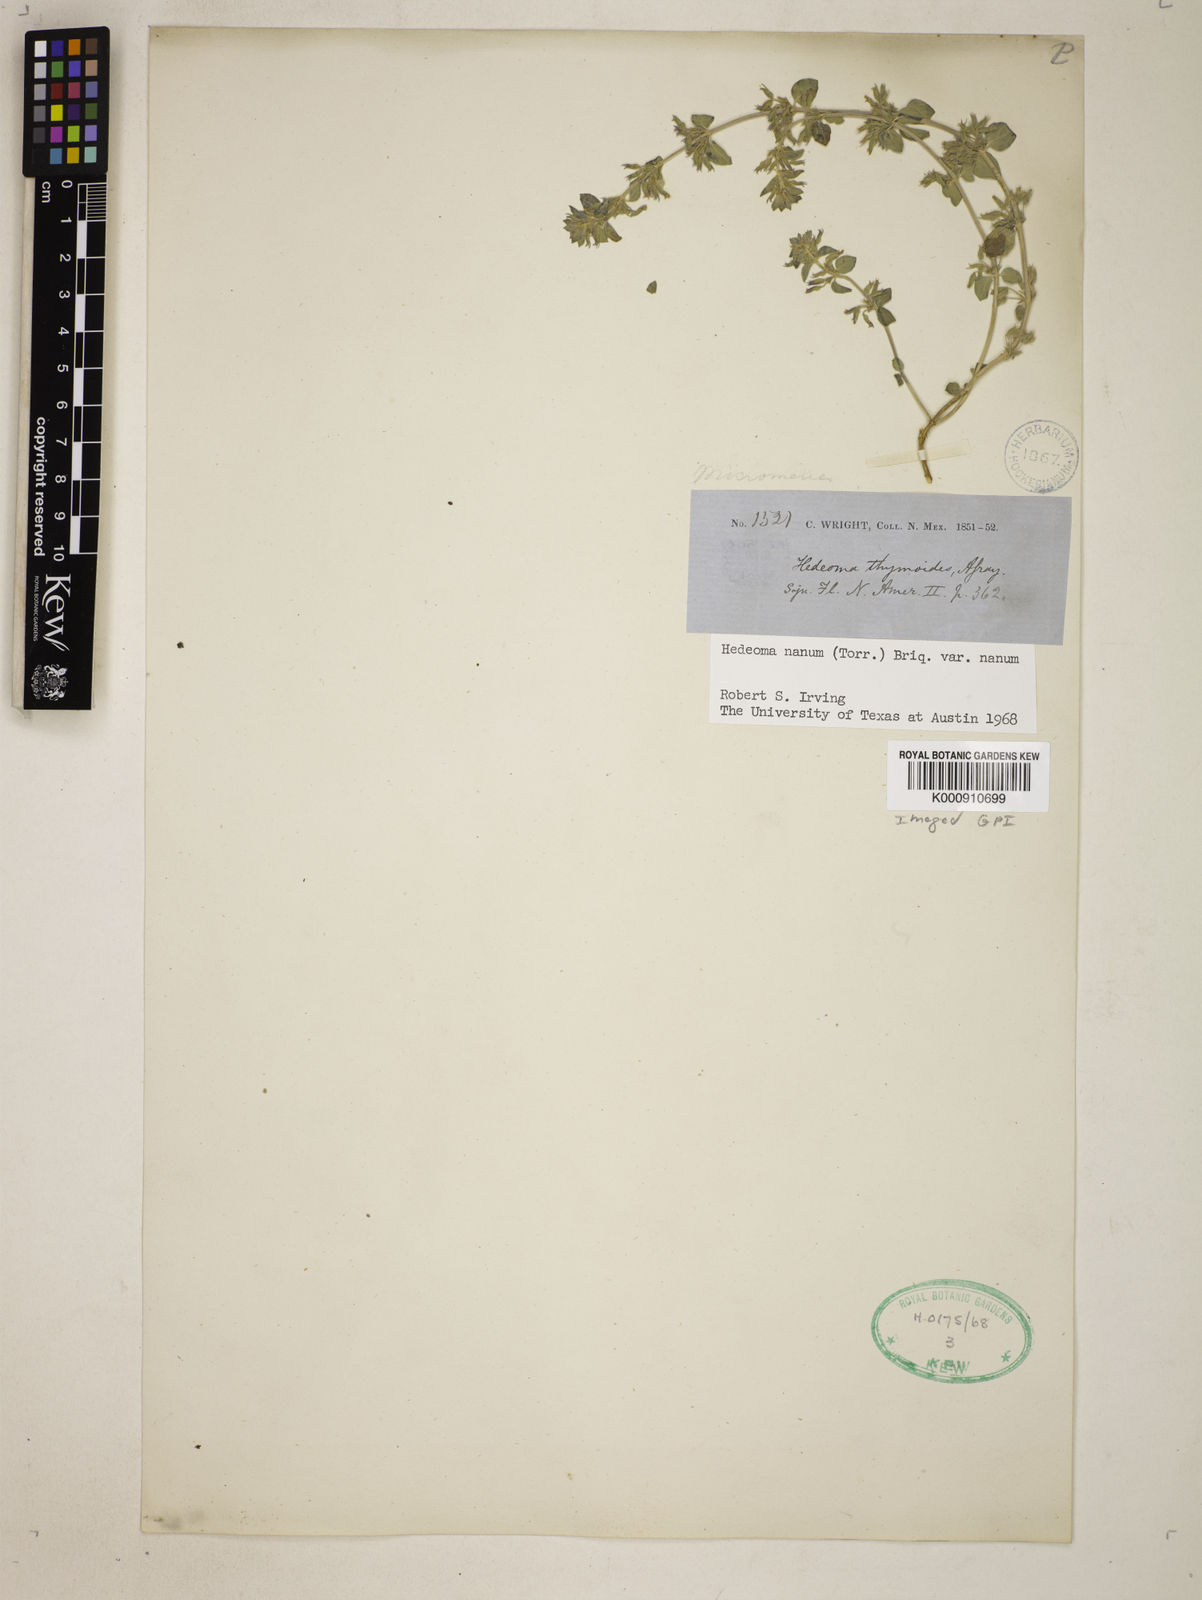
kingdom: Plantae
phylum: Tracheophyta
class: Magnoliopsida
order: Lamiales
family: Lamiaceae
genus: Hedeoma
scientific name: Hedeoma oblongifolia
